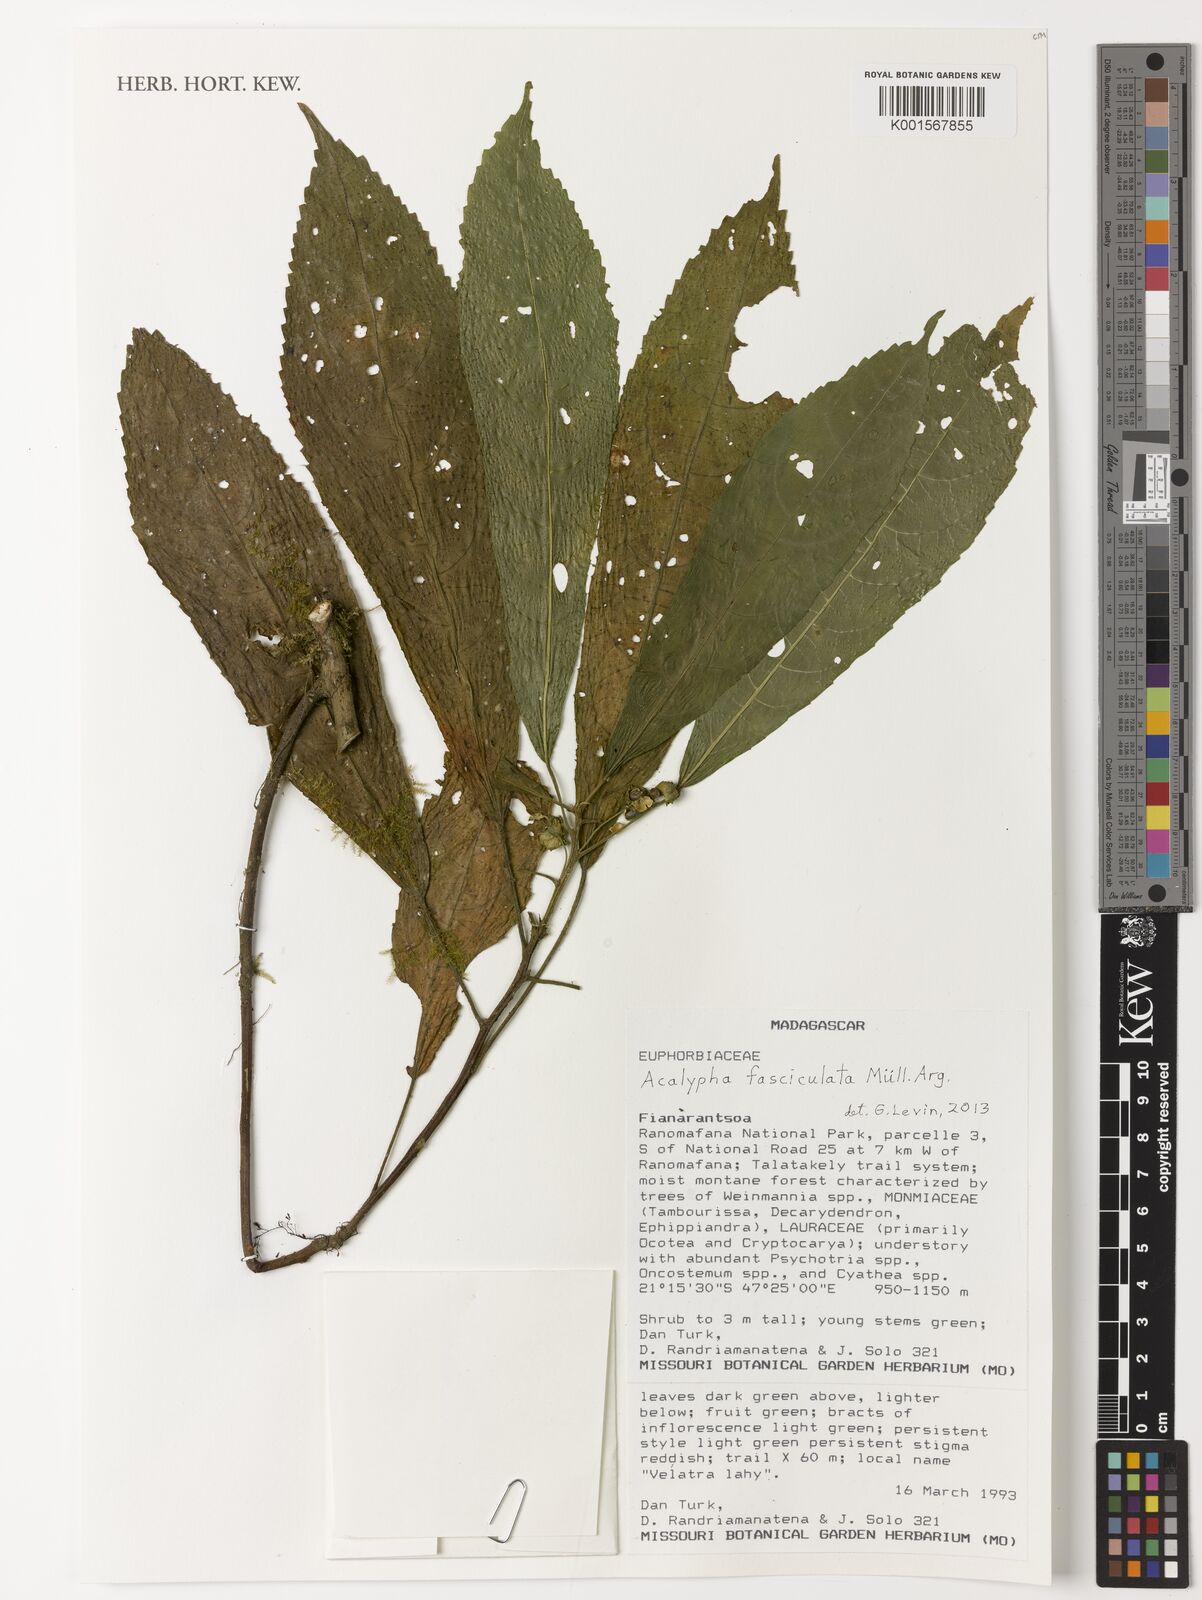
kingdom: Plantae
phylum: Tracheophyta
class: Magnoliopsida
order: Malpighiales
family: Euphorbiaceae
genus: Acalypha
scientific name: Acalypha fasciculata
